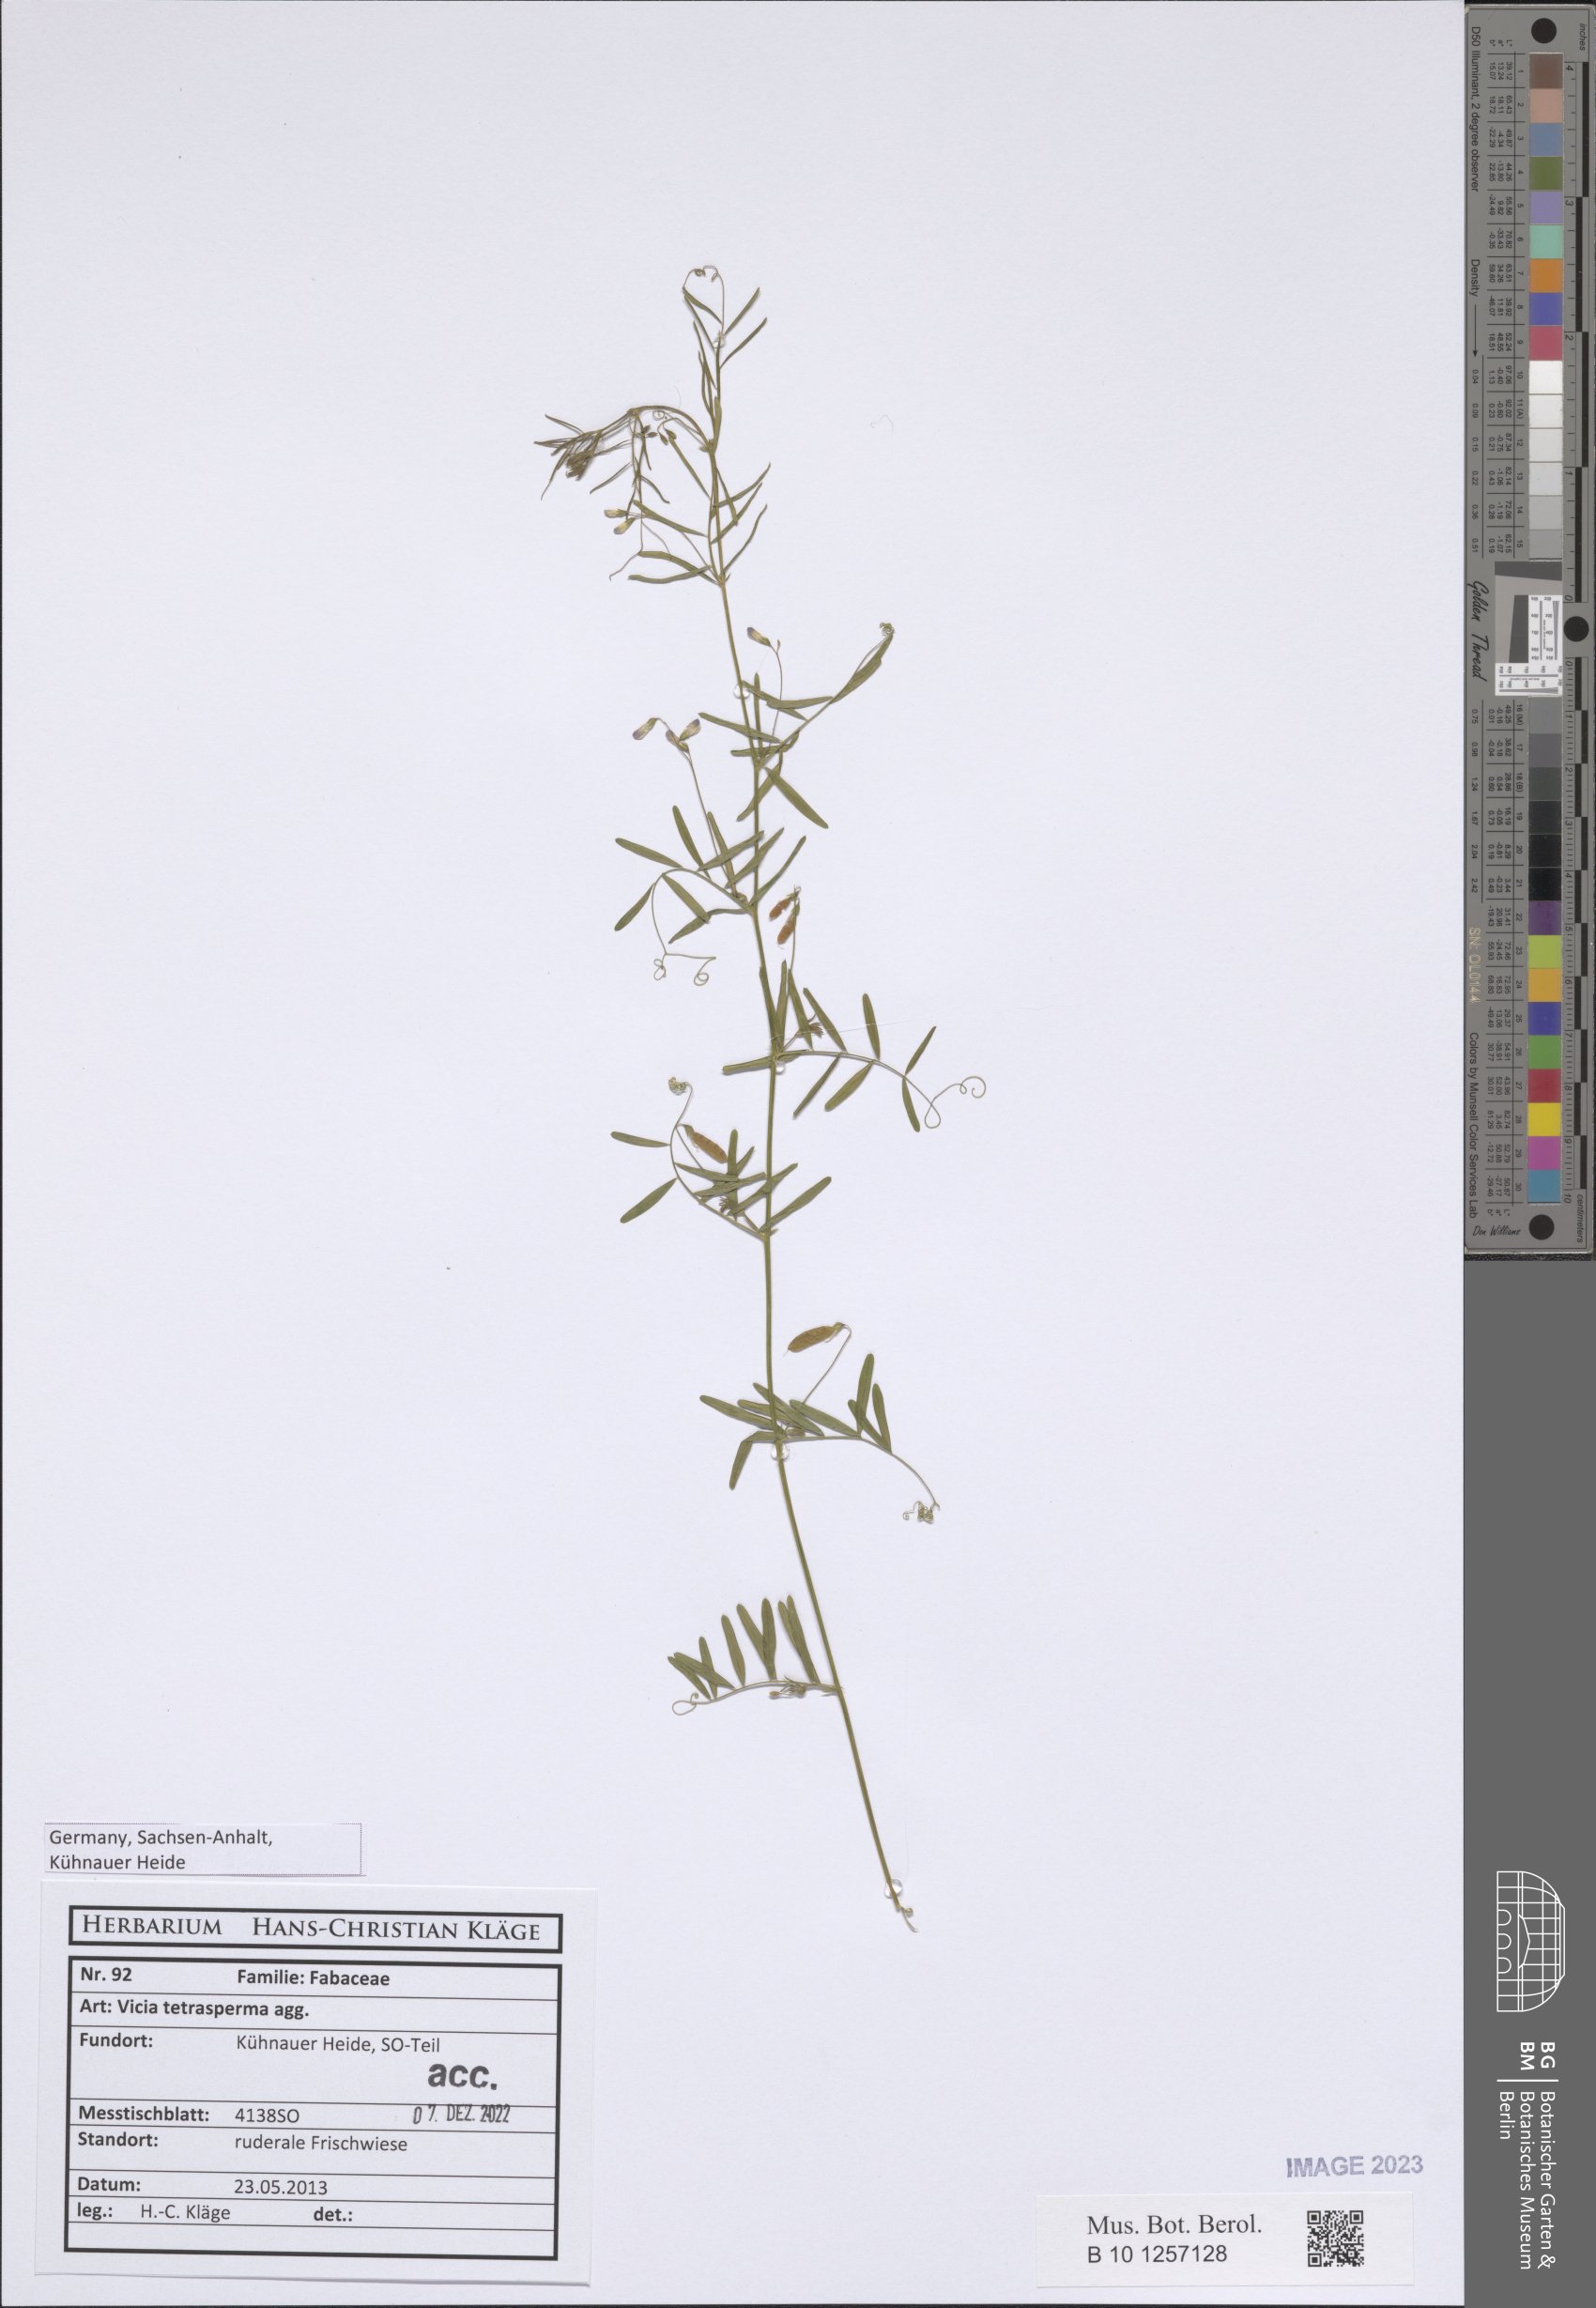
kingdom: Plantae
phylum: Tracheophyta
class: Magnoliopsida
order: Fabales
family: Fabaceae
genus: Vicia
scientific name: Vicia tetrasperma
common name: Smooth tare
